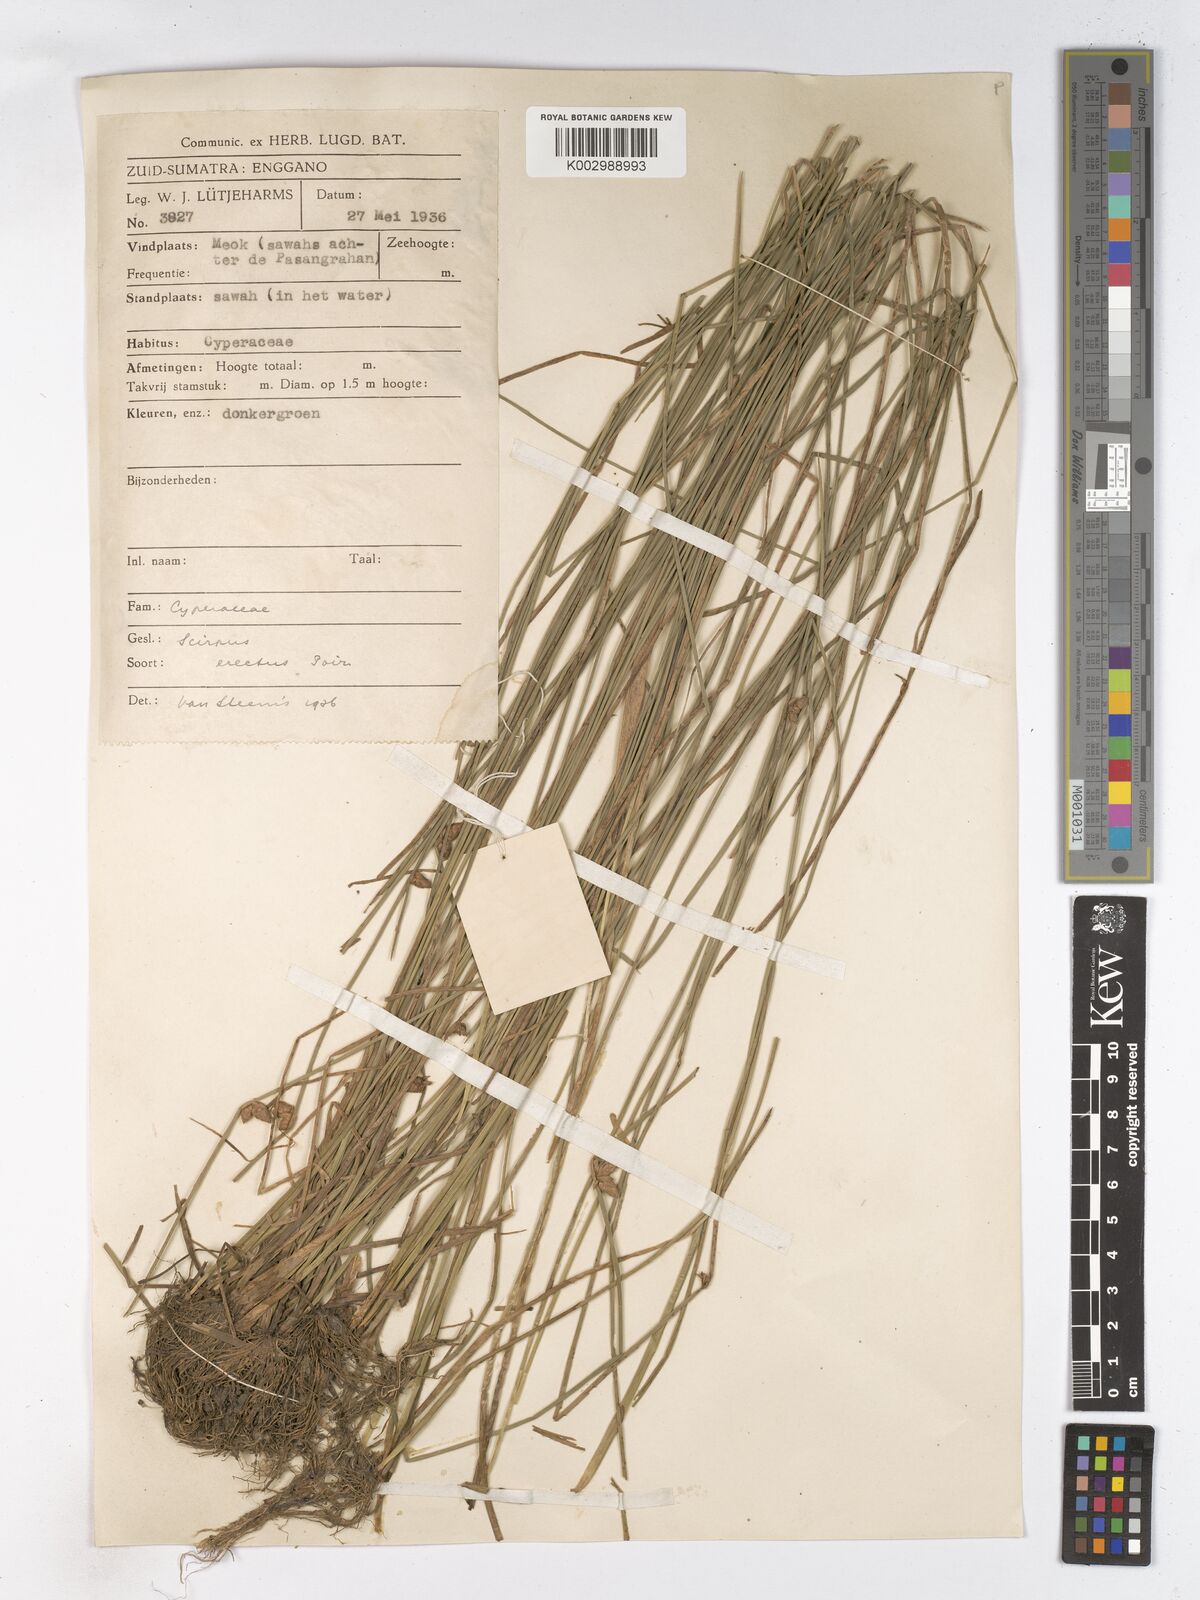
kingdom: Plantae
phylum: Tracheophyta
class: Liliopsida
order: Poales
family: Cyperaceae
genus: Schoenoplectiella
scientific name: Schoenoplectiella juncoides
